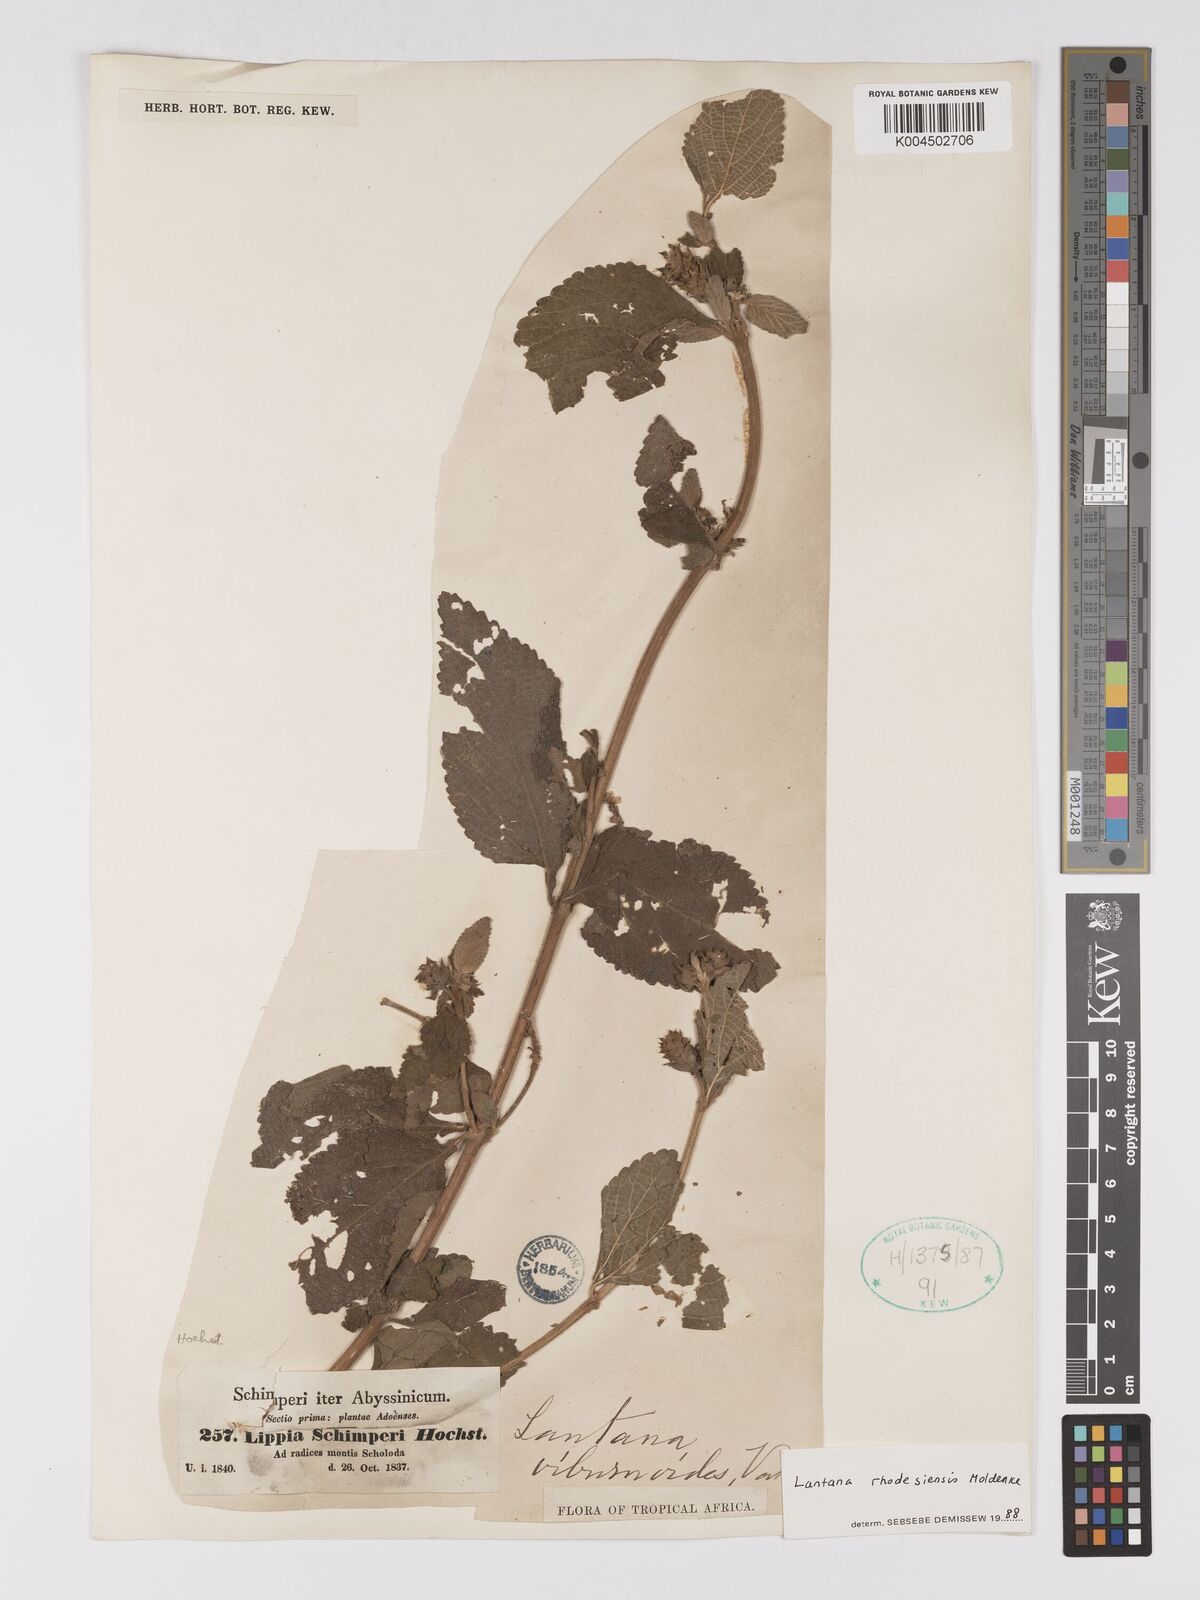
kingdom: Plantae
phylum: Tracheophyta
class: Magnoliopsida
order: Lamiales
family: Verbenaceae
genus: Lantana
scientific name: Lantana ukambensis
